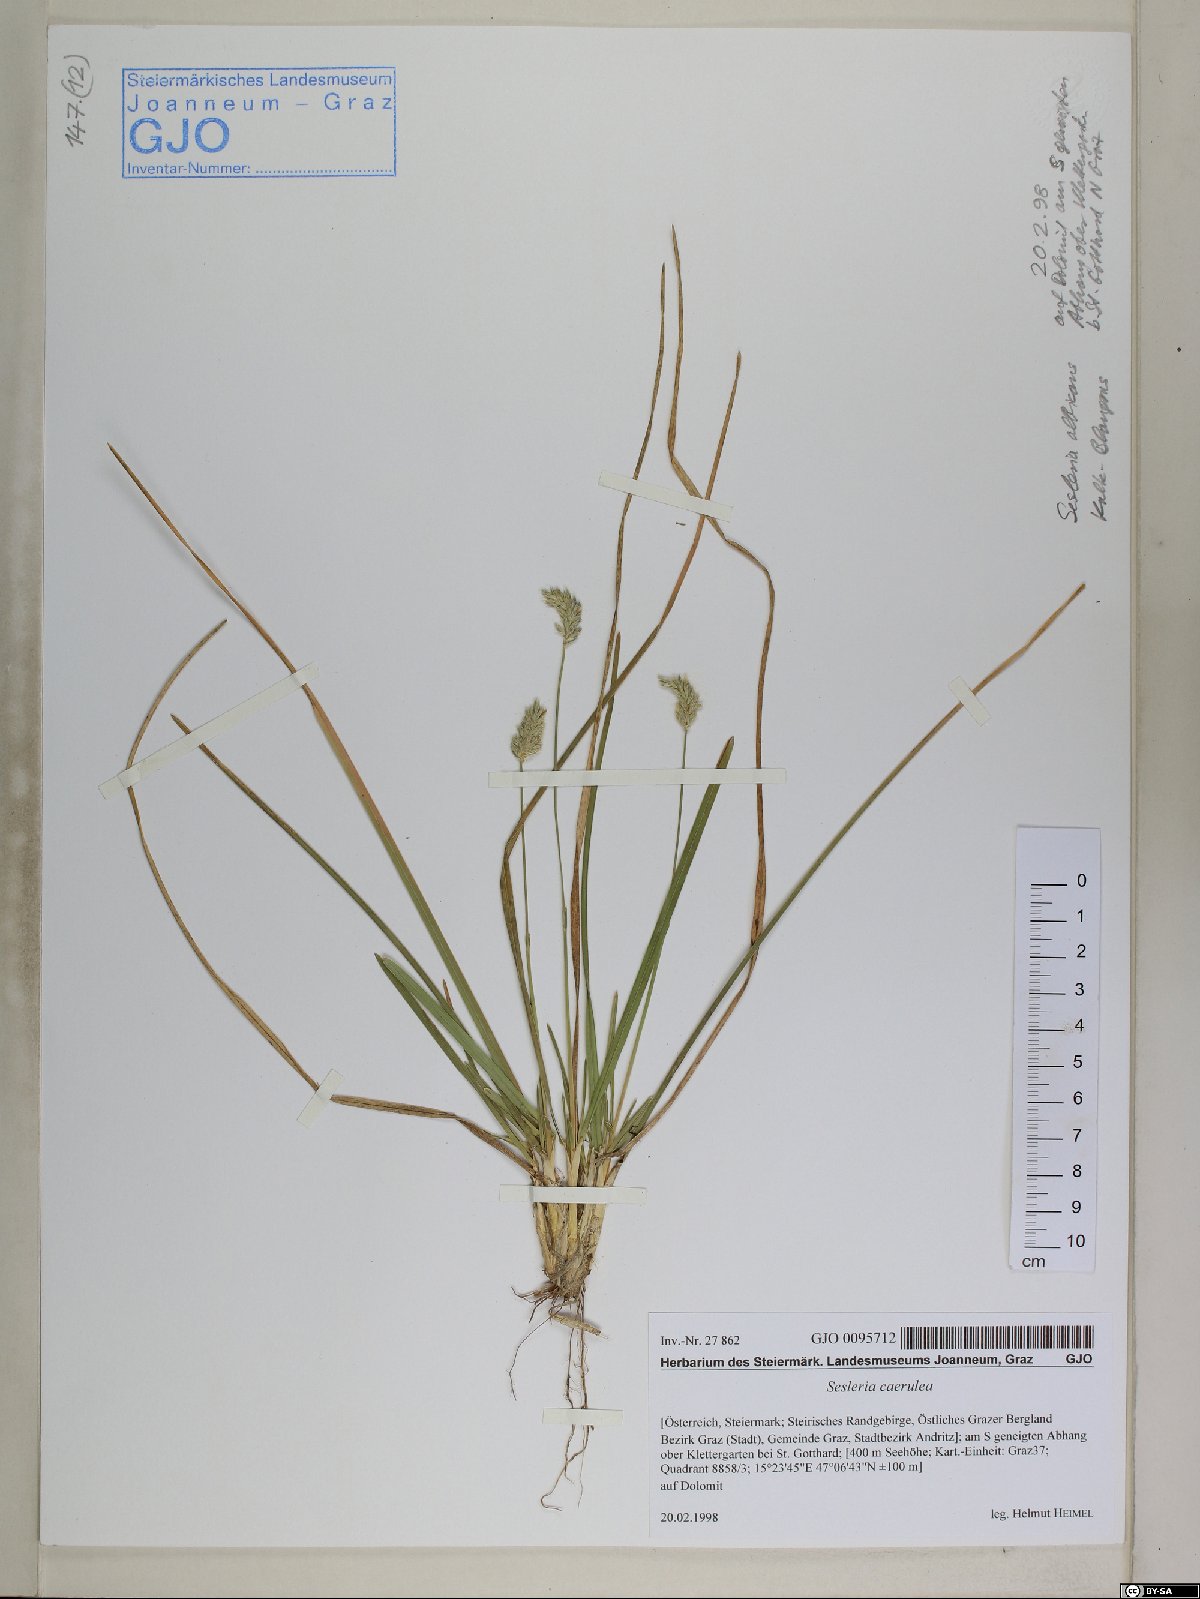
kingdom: Plantae
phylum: Tracheophyta
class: Liliopsida
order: Poales
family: Poaceae
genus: Sesleria
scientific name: Sesleria caerulea
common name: Blue moor-grass
